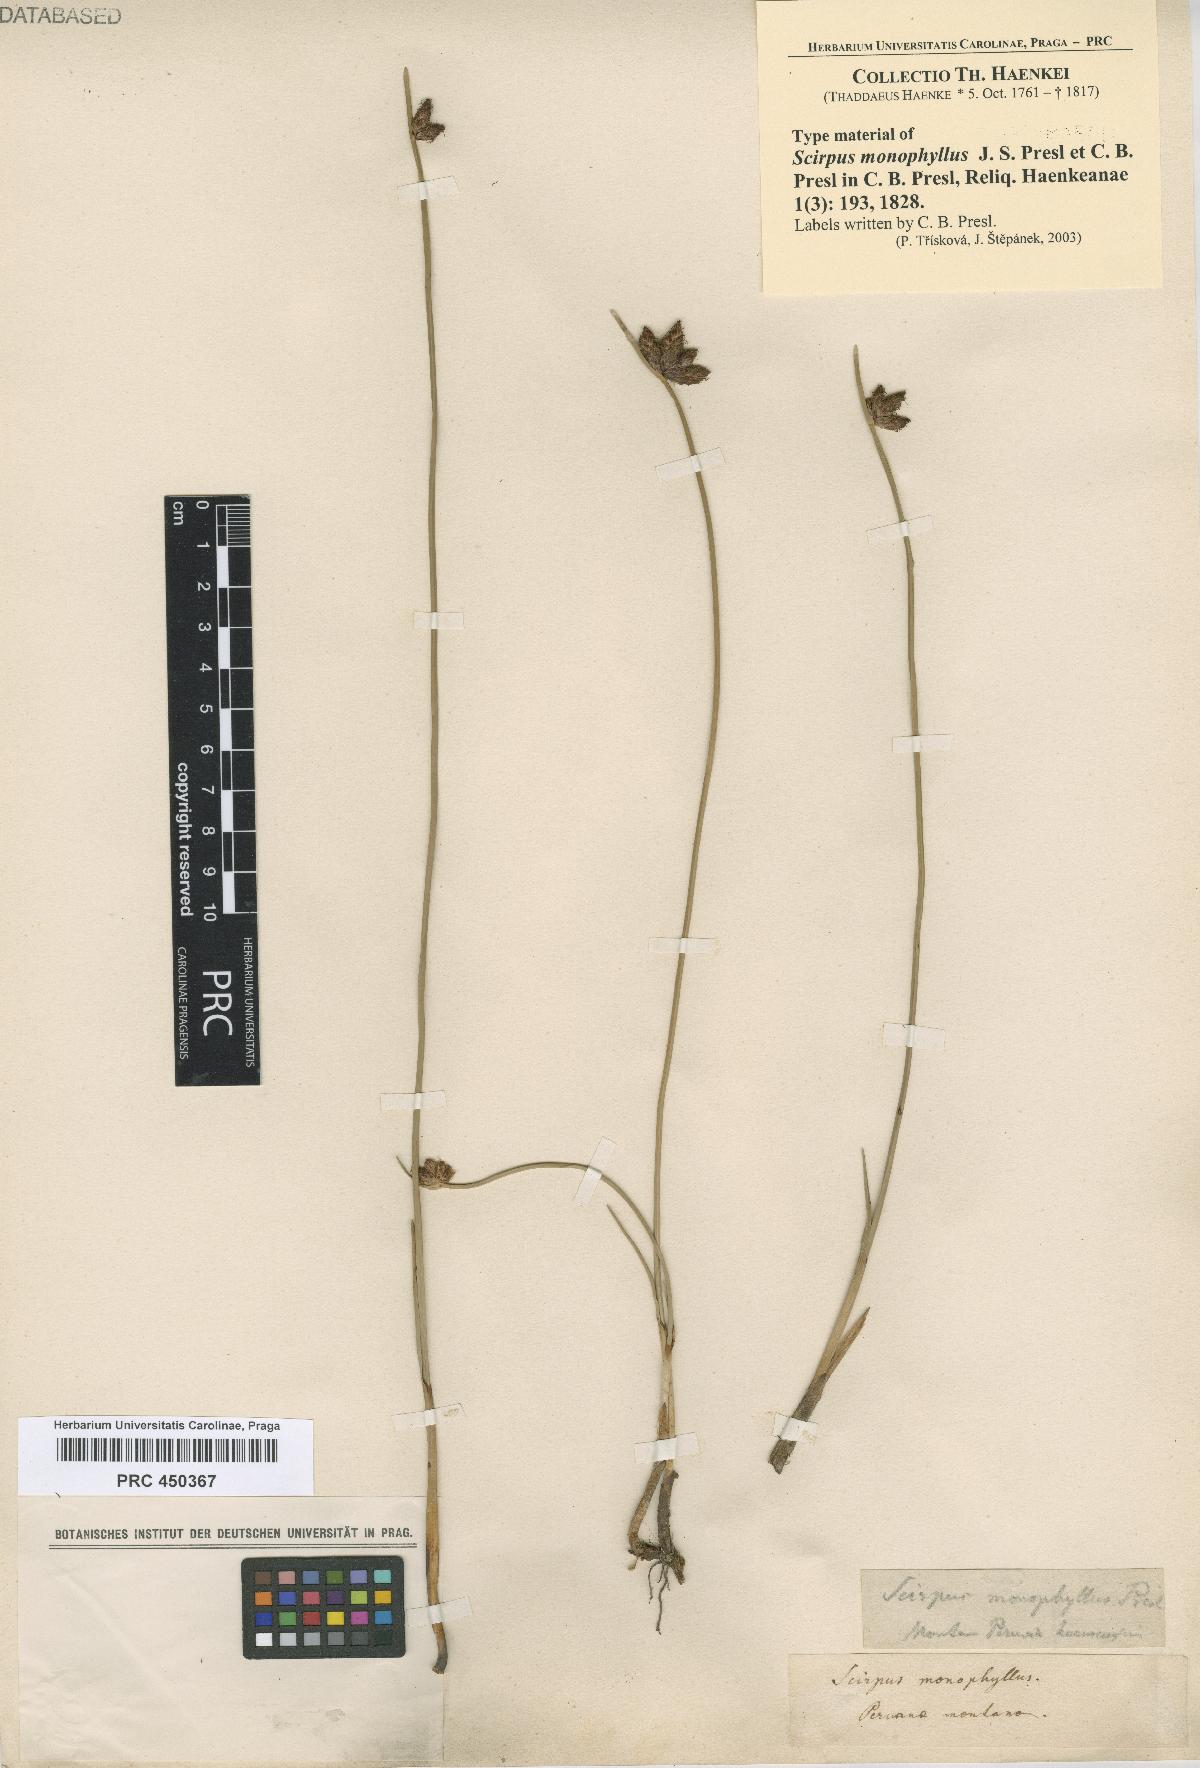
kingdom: Plantae
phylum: Tracheophyta
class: Liliopsida
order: Poales
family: Cyperaceae
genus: Schoenoplectus
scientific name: Schoenoplectus pungens
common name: Sharp club-rush
